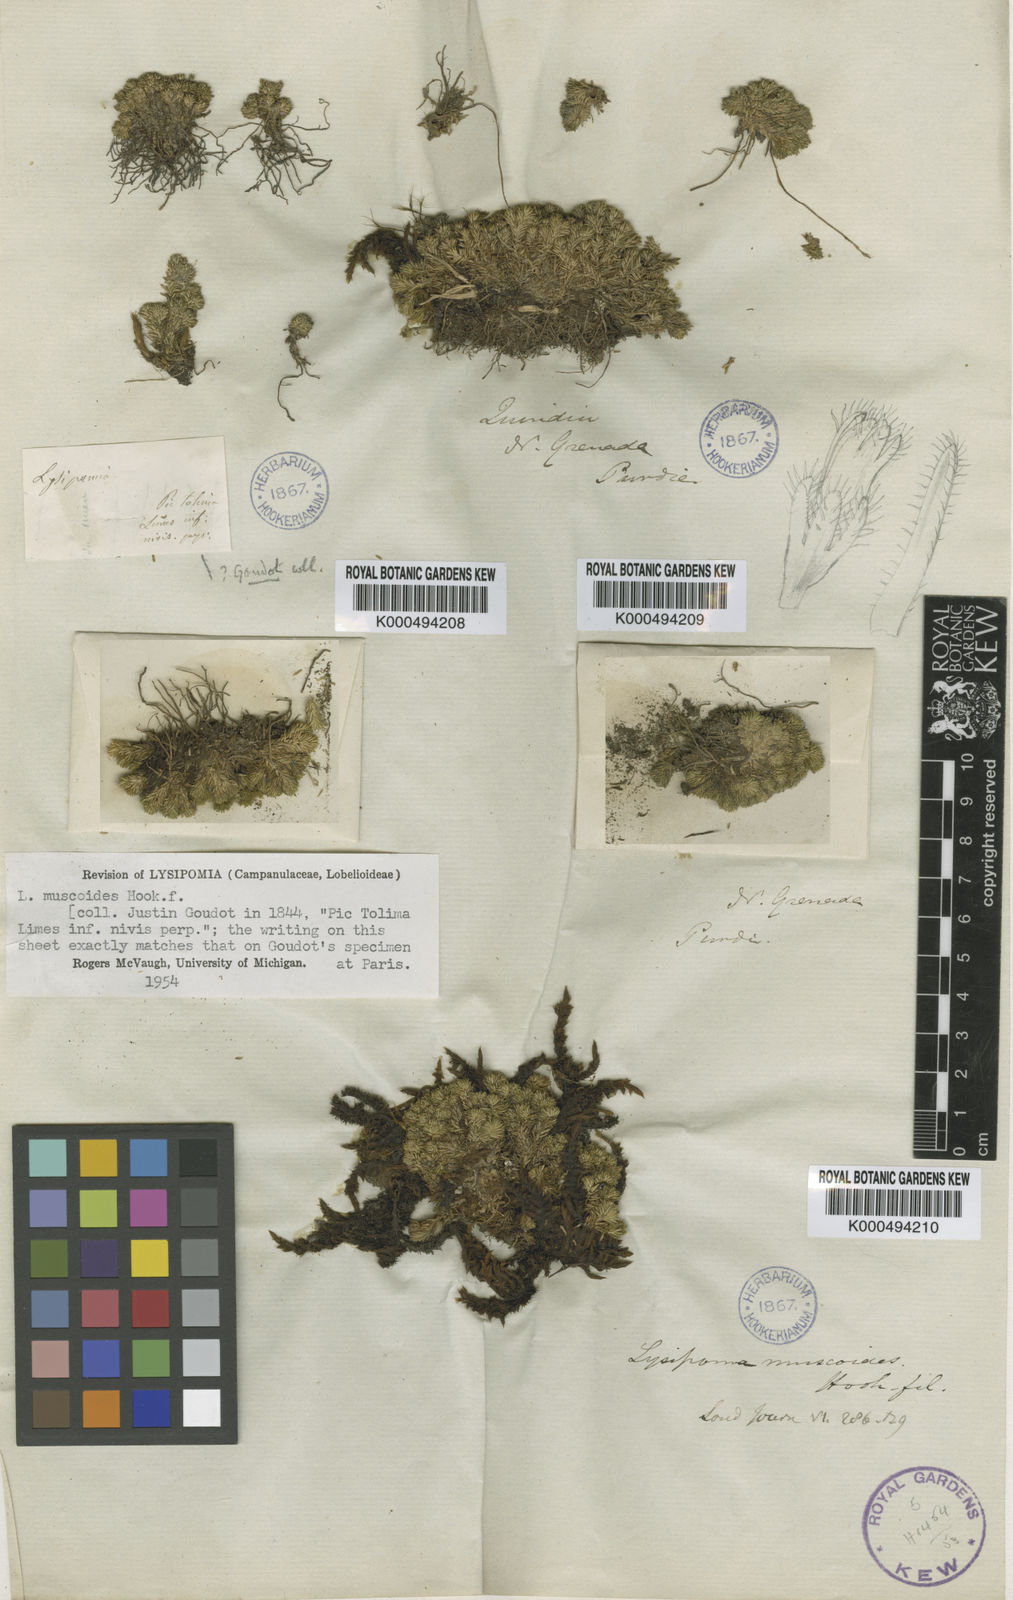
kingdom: Plantae
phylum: Tracheophyta
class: Magnoliopsida
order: Asterales
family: Campanulaceae
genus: Lysipomia
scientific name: Lysipomia muscoides
